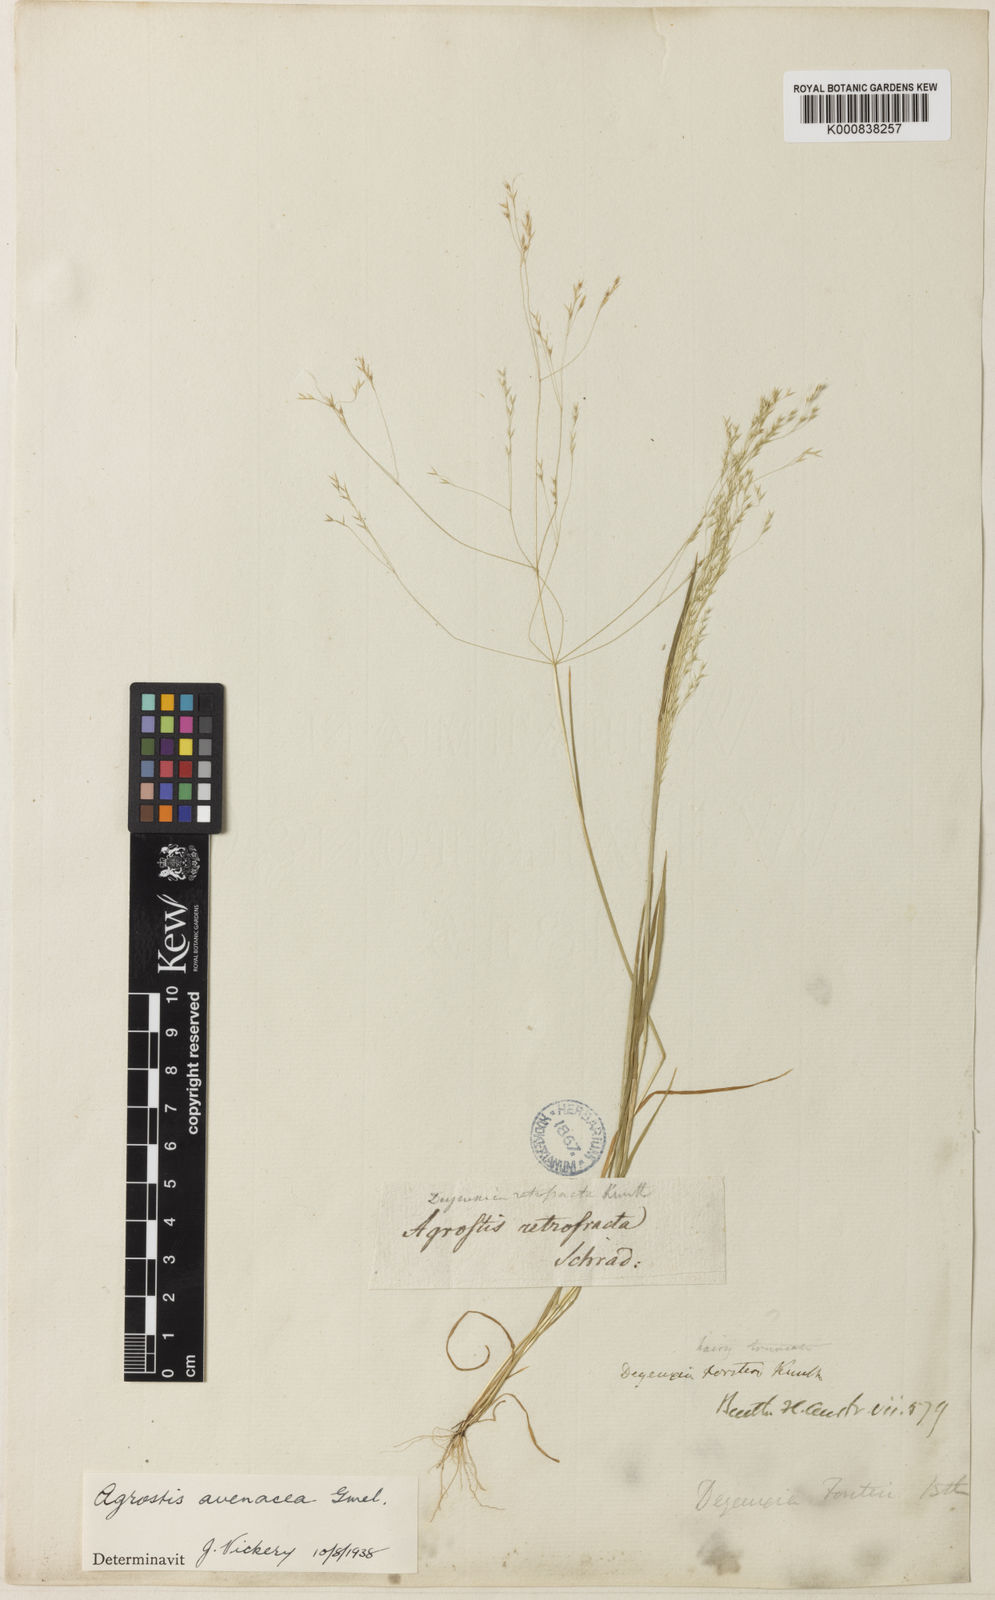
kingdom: Plantae
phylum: Tracheophyta
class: Liliopsida
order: Poales
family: Poaceae
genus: Lachnagrostis
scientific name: Lachnagrostis filiformis
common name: Bentgrass
